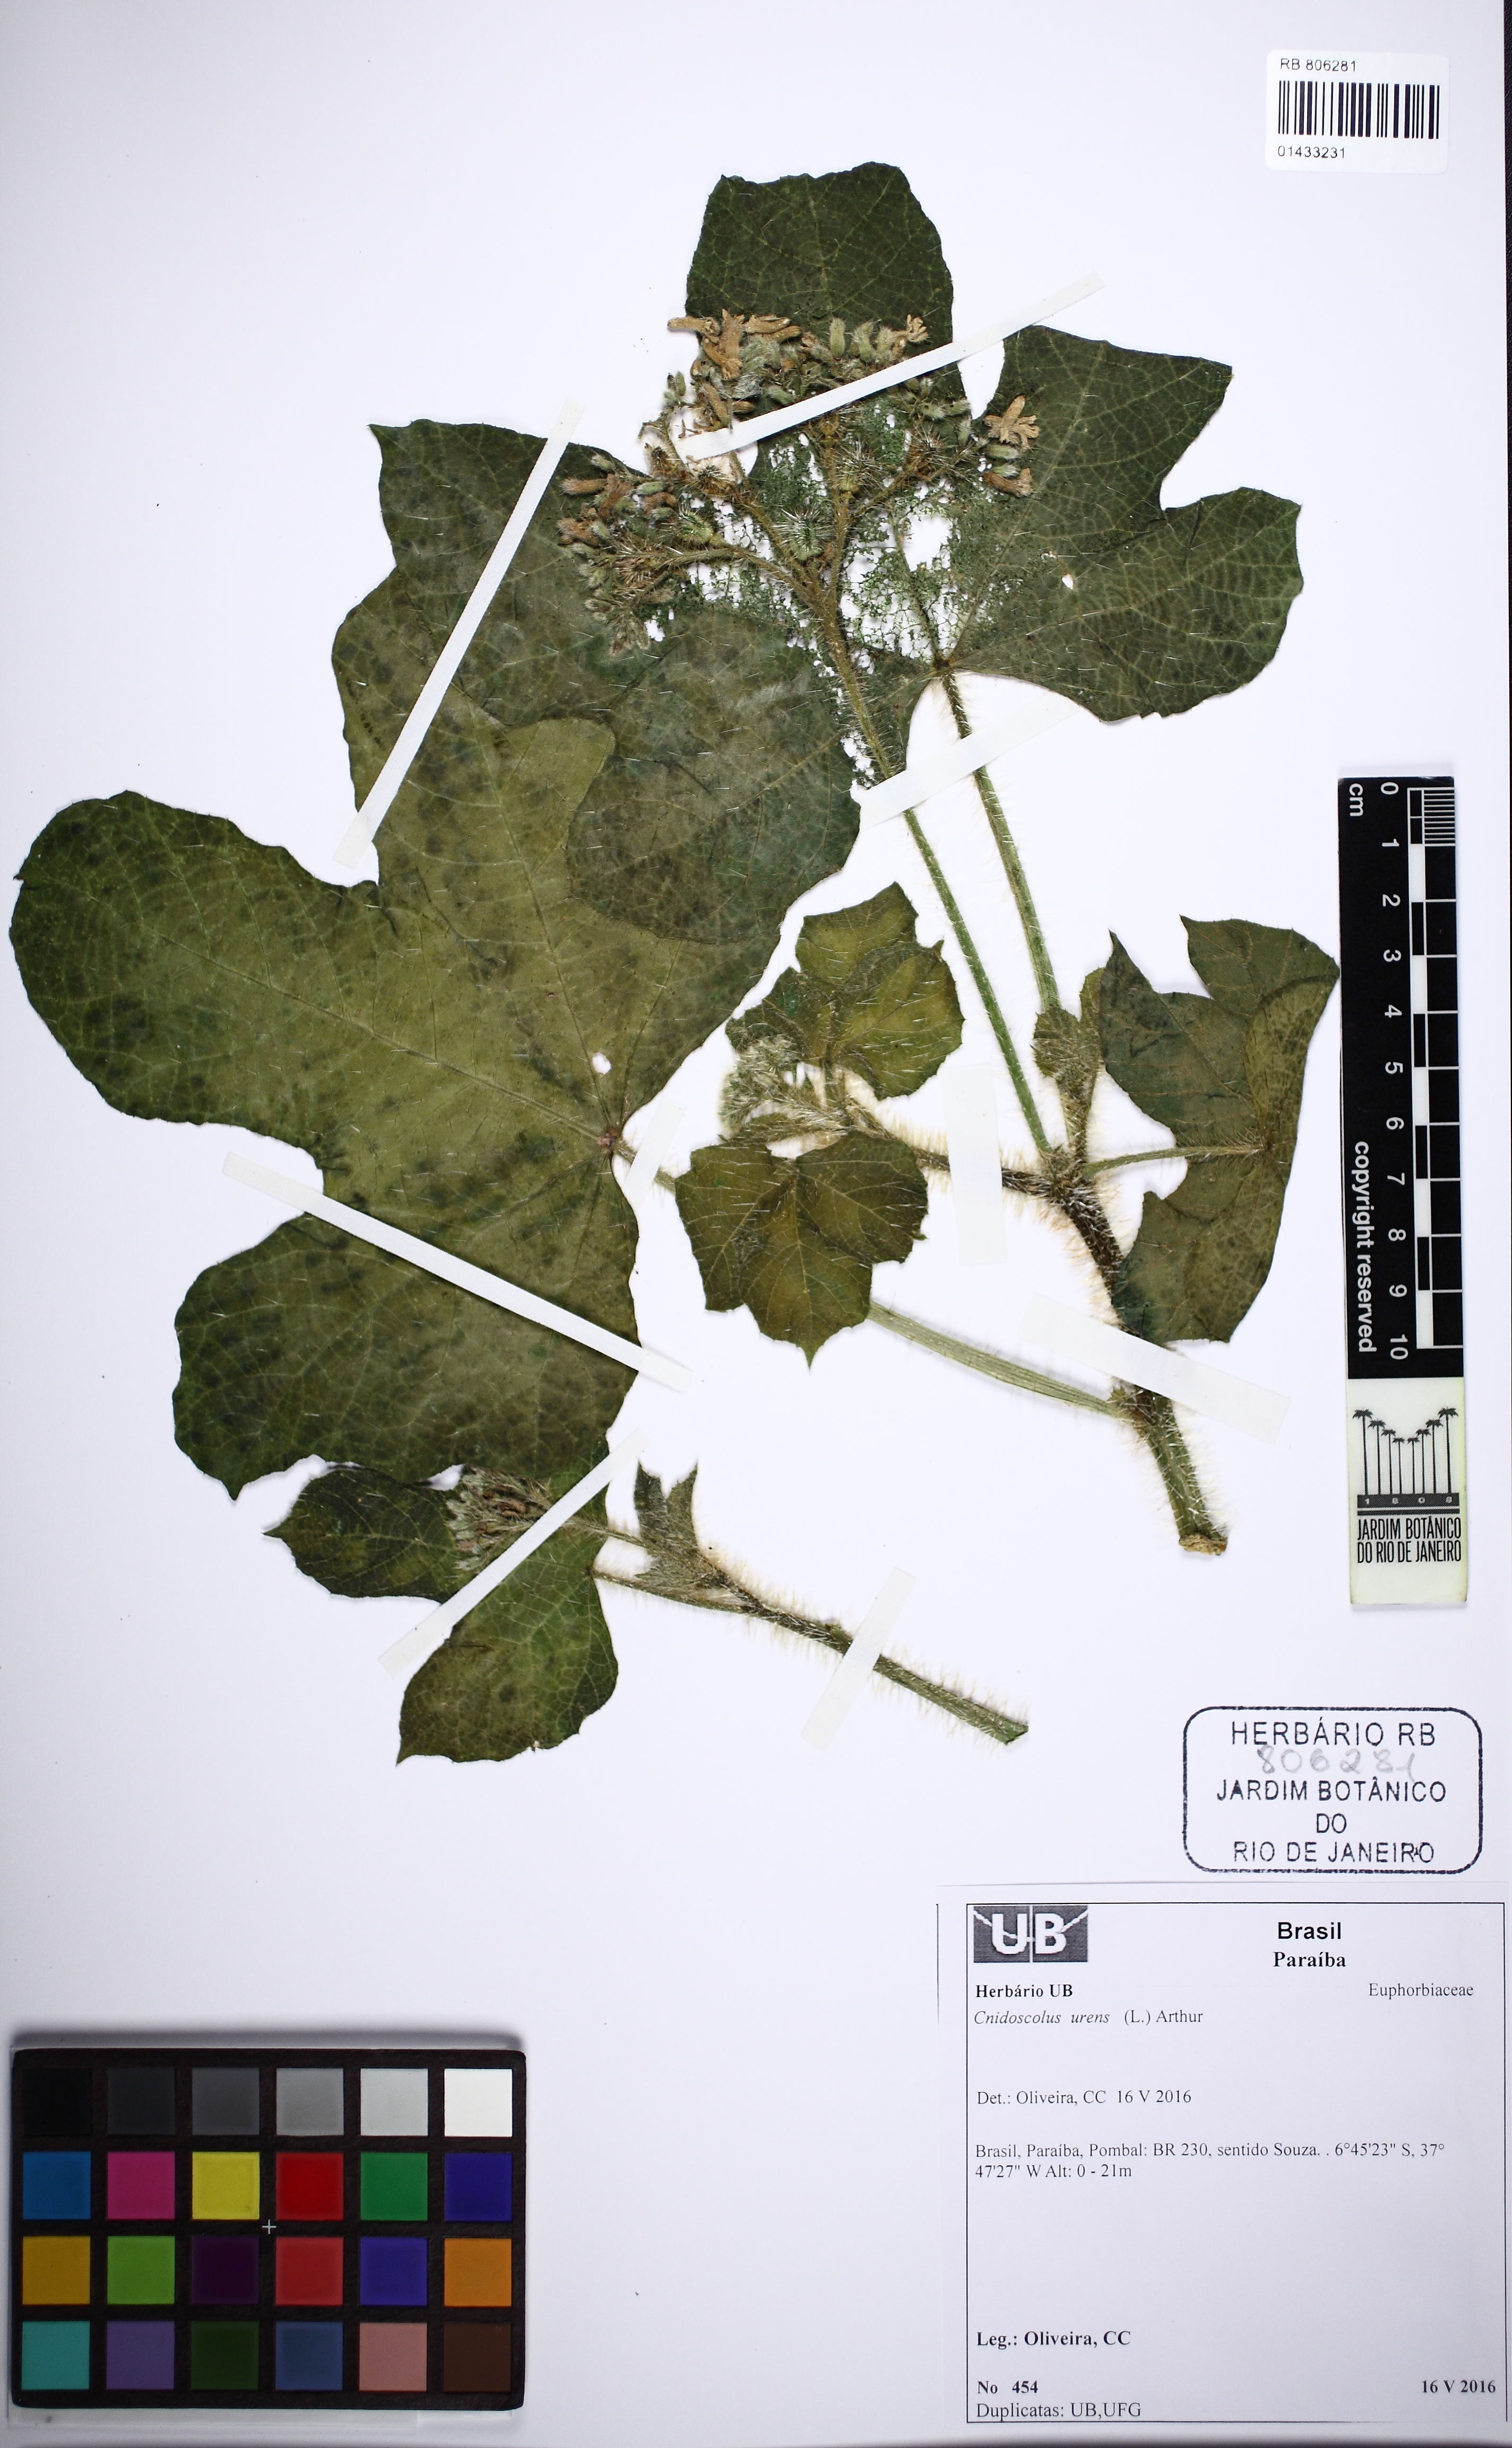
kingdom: Plantae
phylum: Tracheophyta
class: Magnoliopsida
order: Malpighiales
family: Euphorbiaceae
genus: Cnidoscolus
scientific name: Cnidoscolus urens
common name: Bull-nettle
